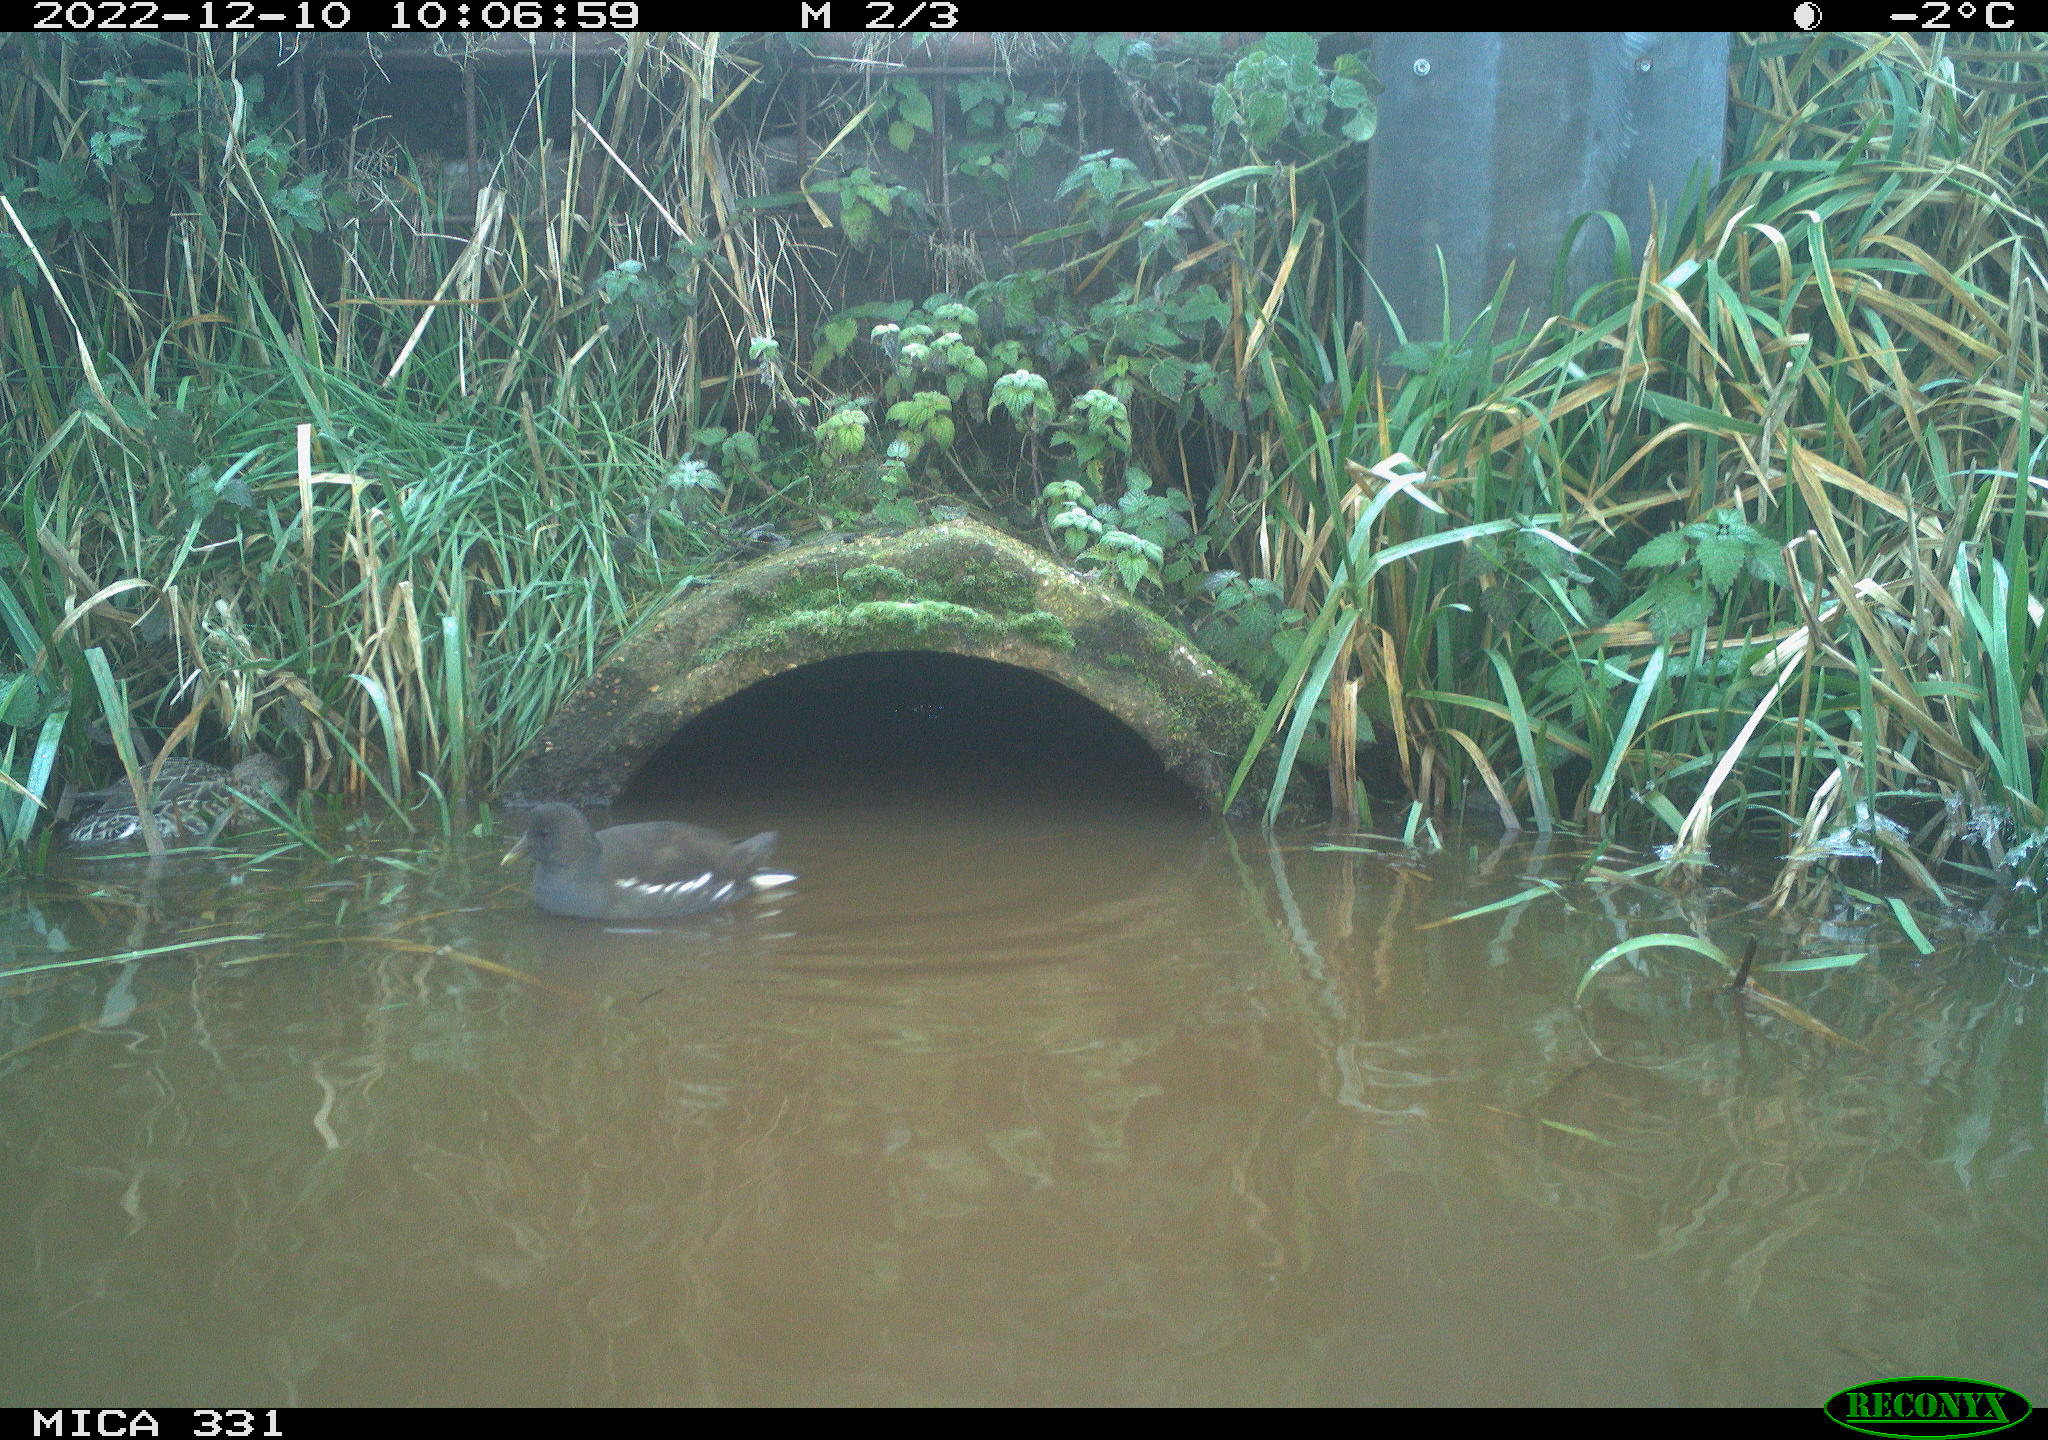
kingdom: Animalia
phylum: Chordata
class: Aves
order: Gruiformes
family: Rallidae
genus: Gallinula
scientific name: Gallinula chloropus
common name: Common moorhen
